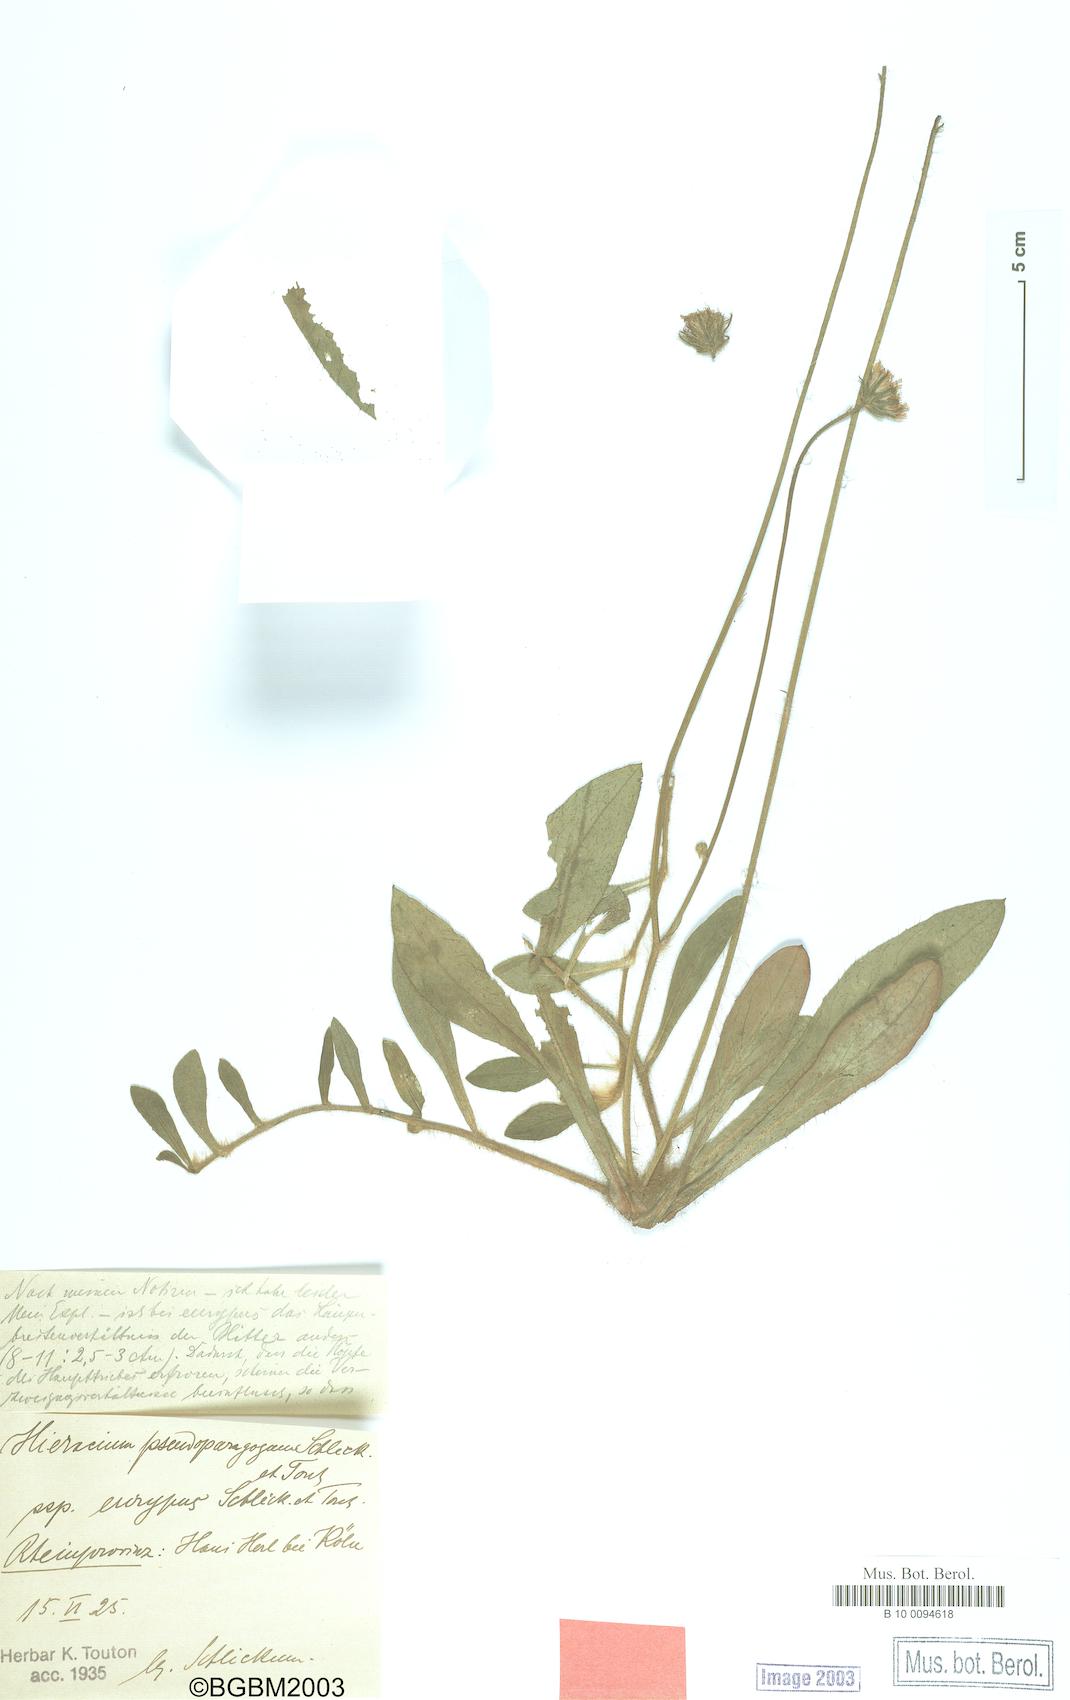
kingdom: Plantae
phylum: Tracheophyta
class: Magnoliopsida
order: Asterales
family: Asteraceae
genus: Pilosella
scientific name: Pilosella pseudoparagoga
